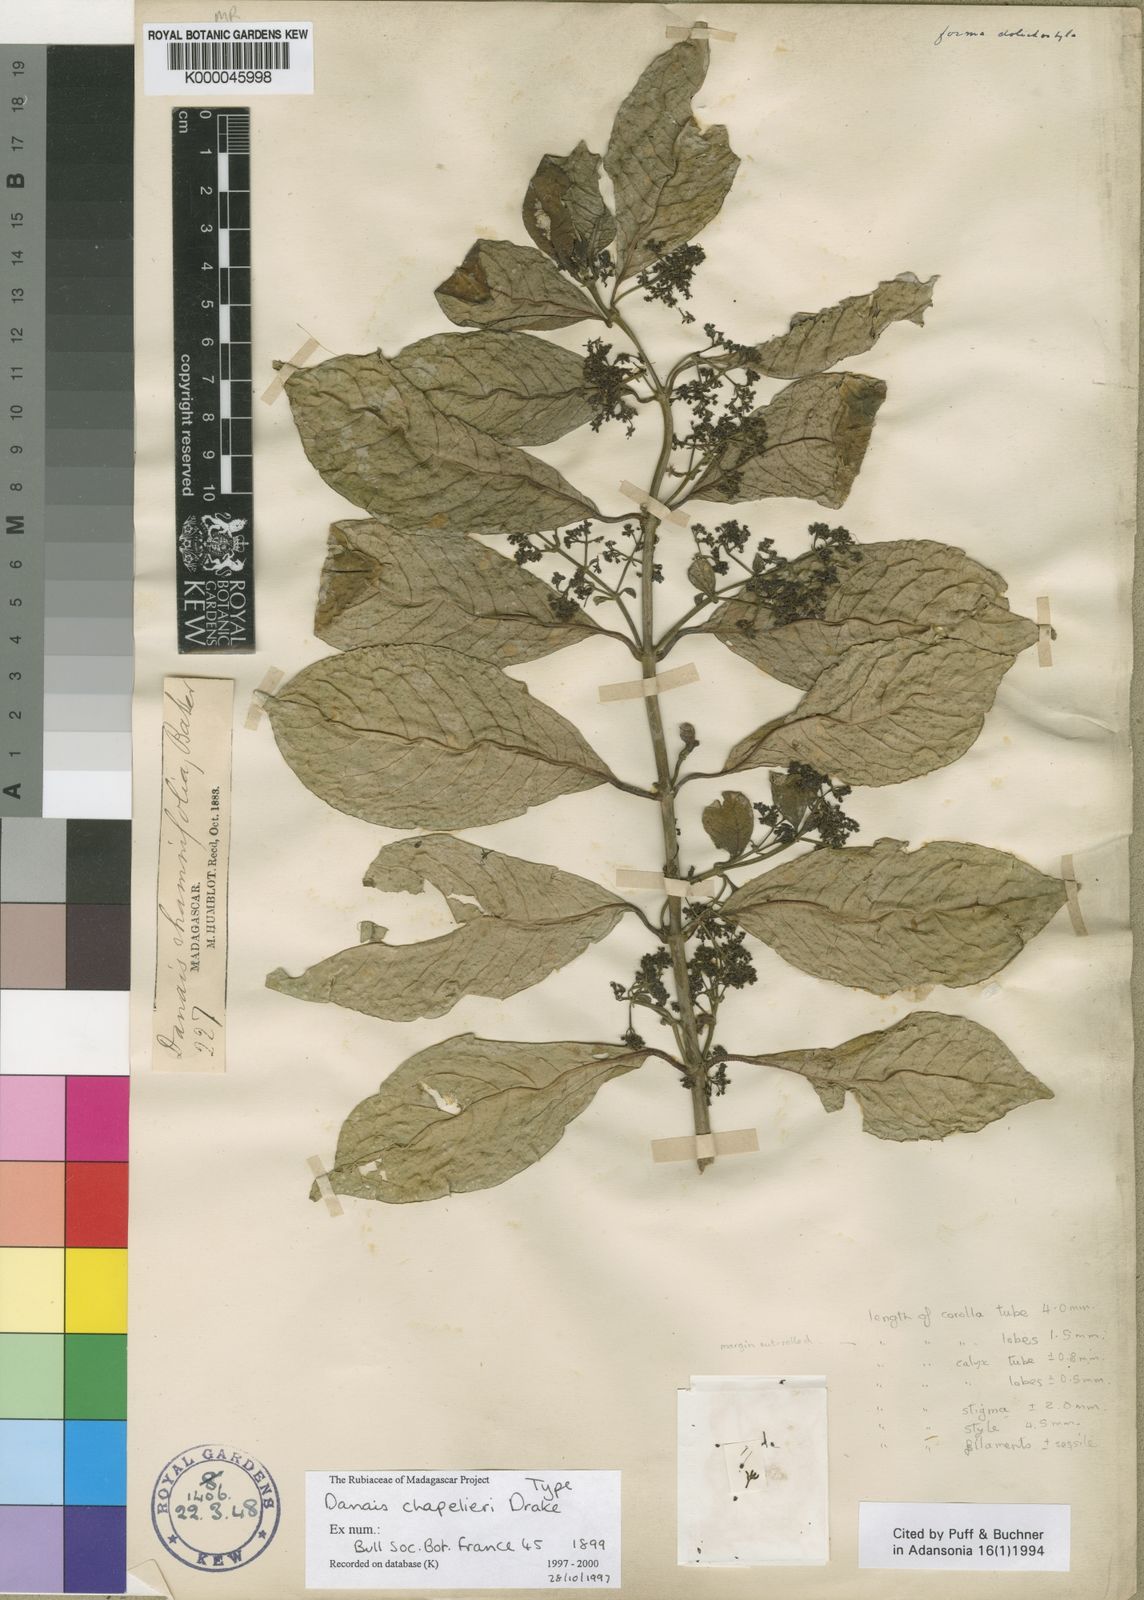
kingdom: Plantae
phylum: Tracheophyta
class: Magnoliopsida
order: Gentianales
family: Rubiaceae
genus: Danais
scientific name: Danais rhamnifolia
